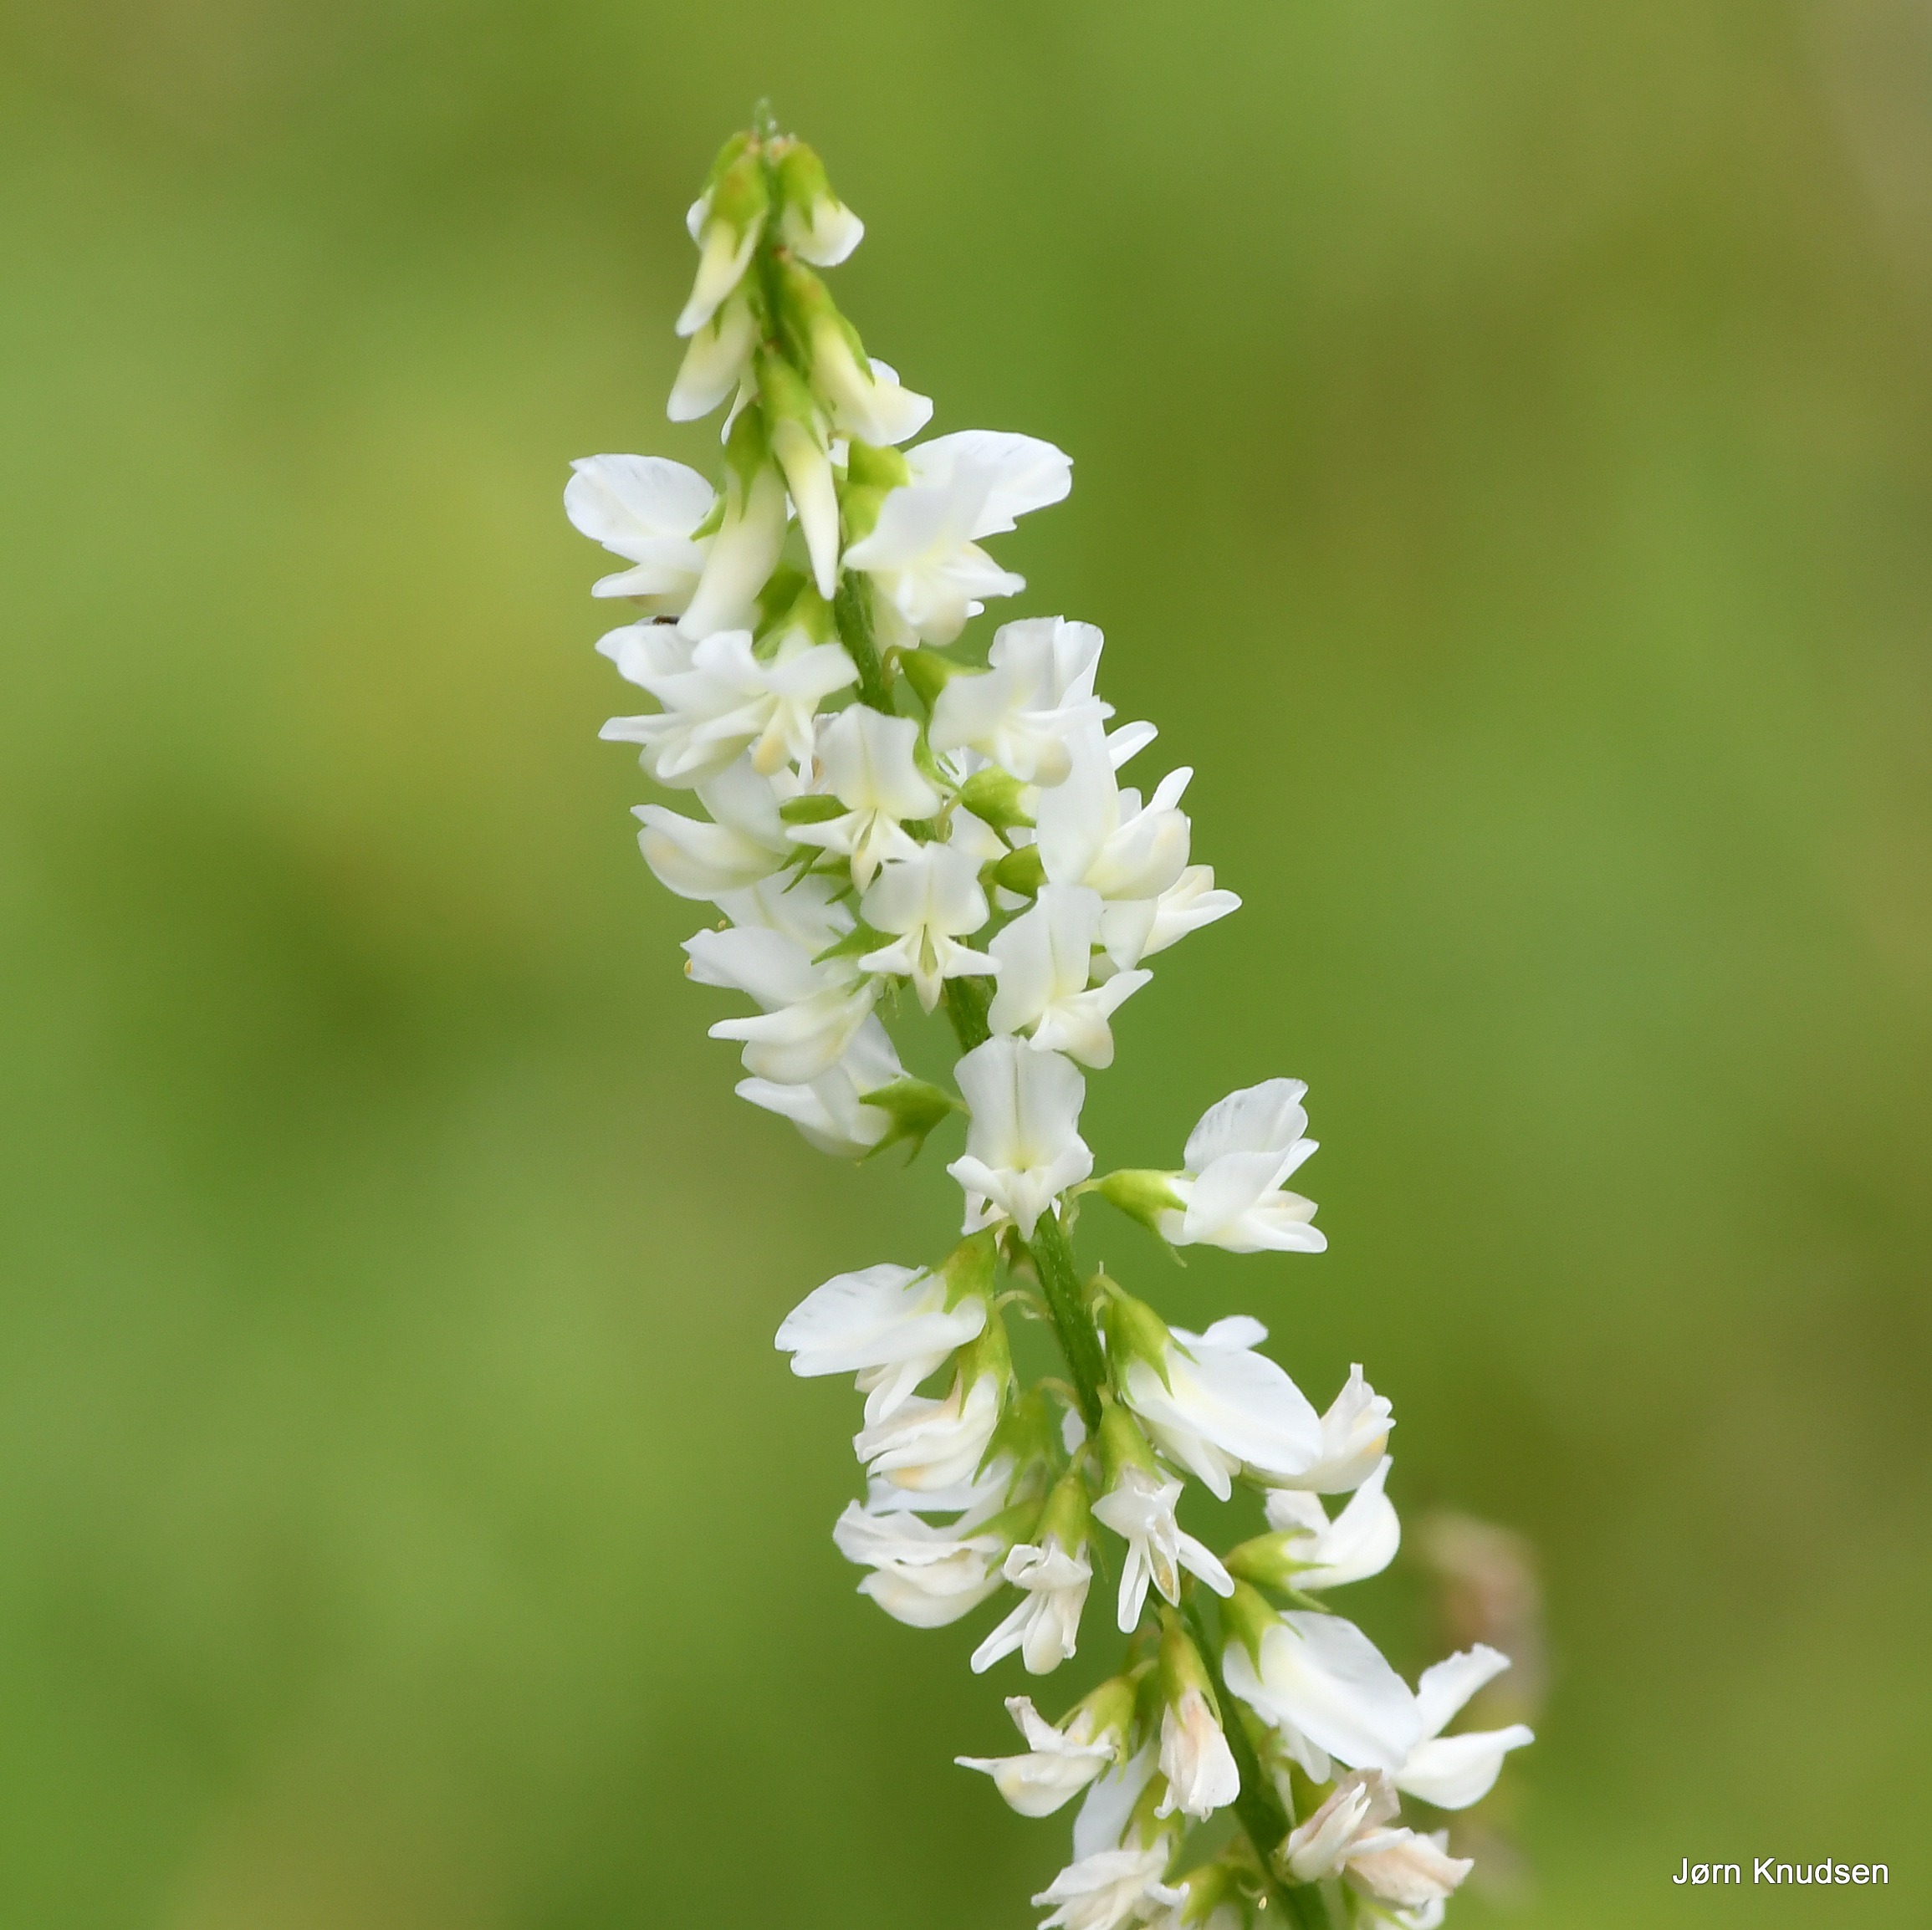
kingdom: Plantae
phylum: Tracheophyta
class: Magnoliopsida
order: Fabales
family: Fabaceae
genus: Melilotus
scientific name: Melilotus albus
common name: Hvid stenkløver
